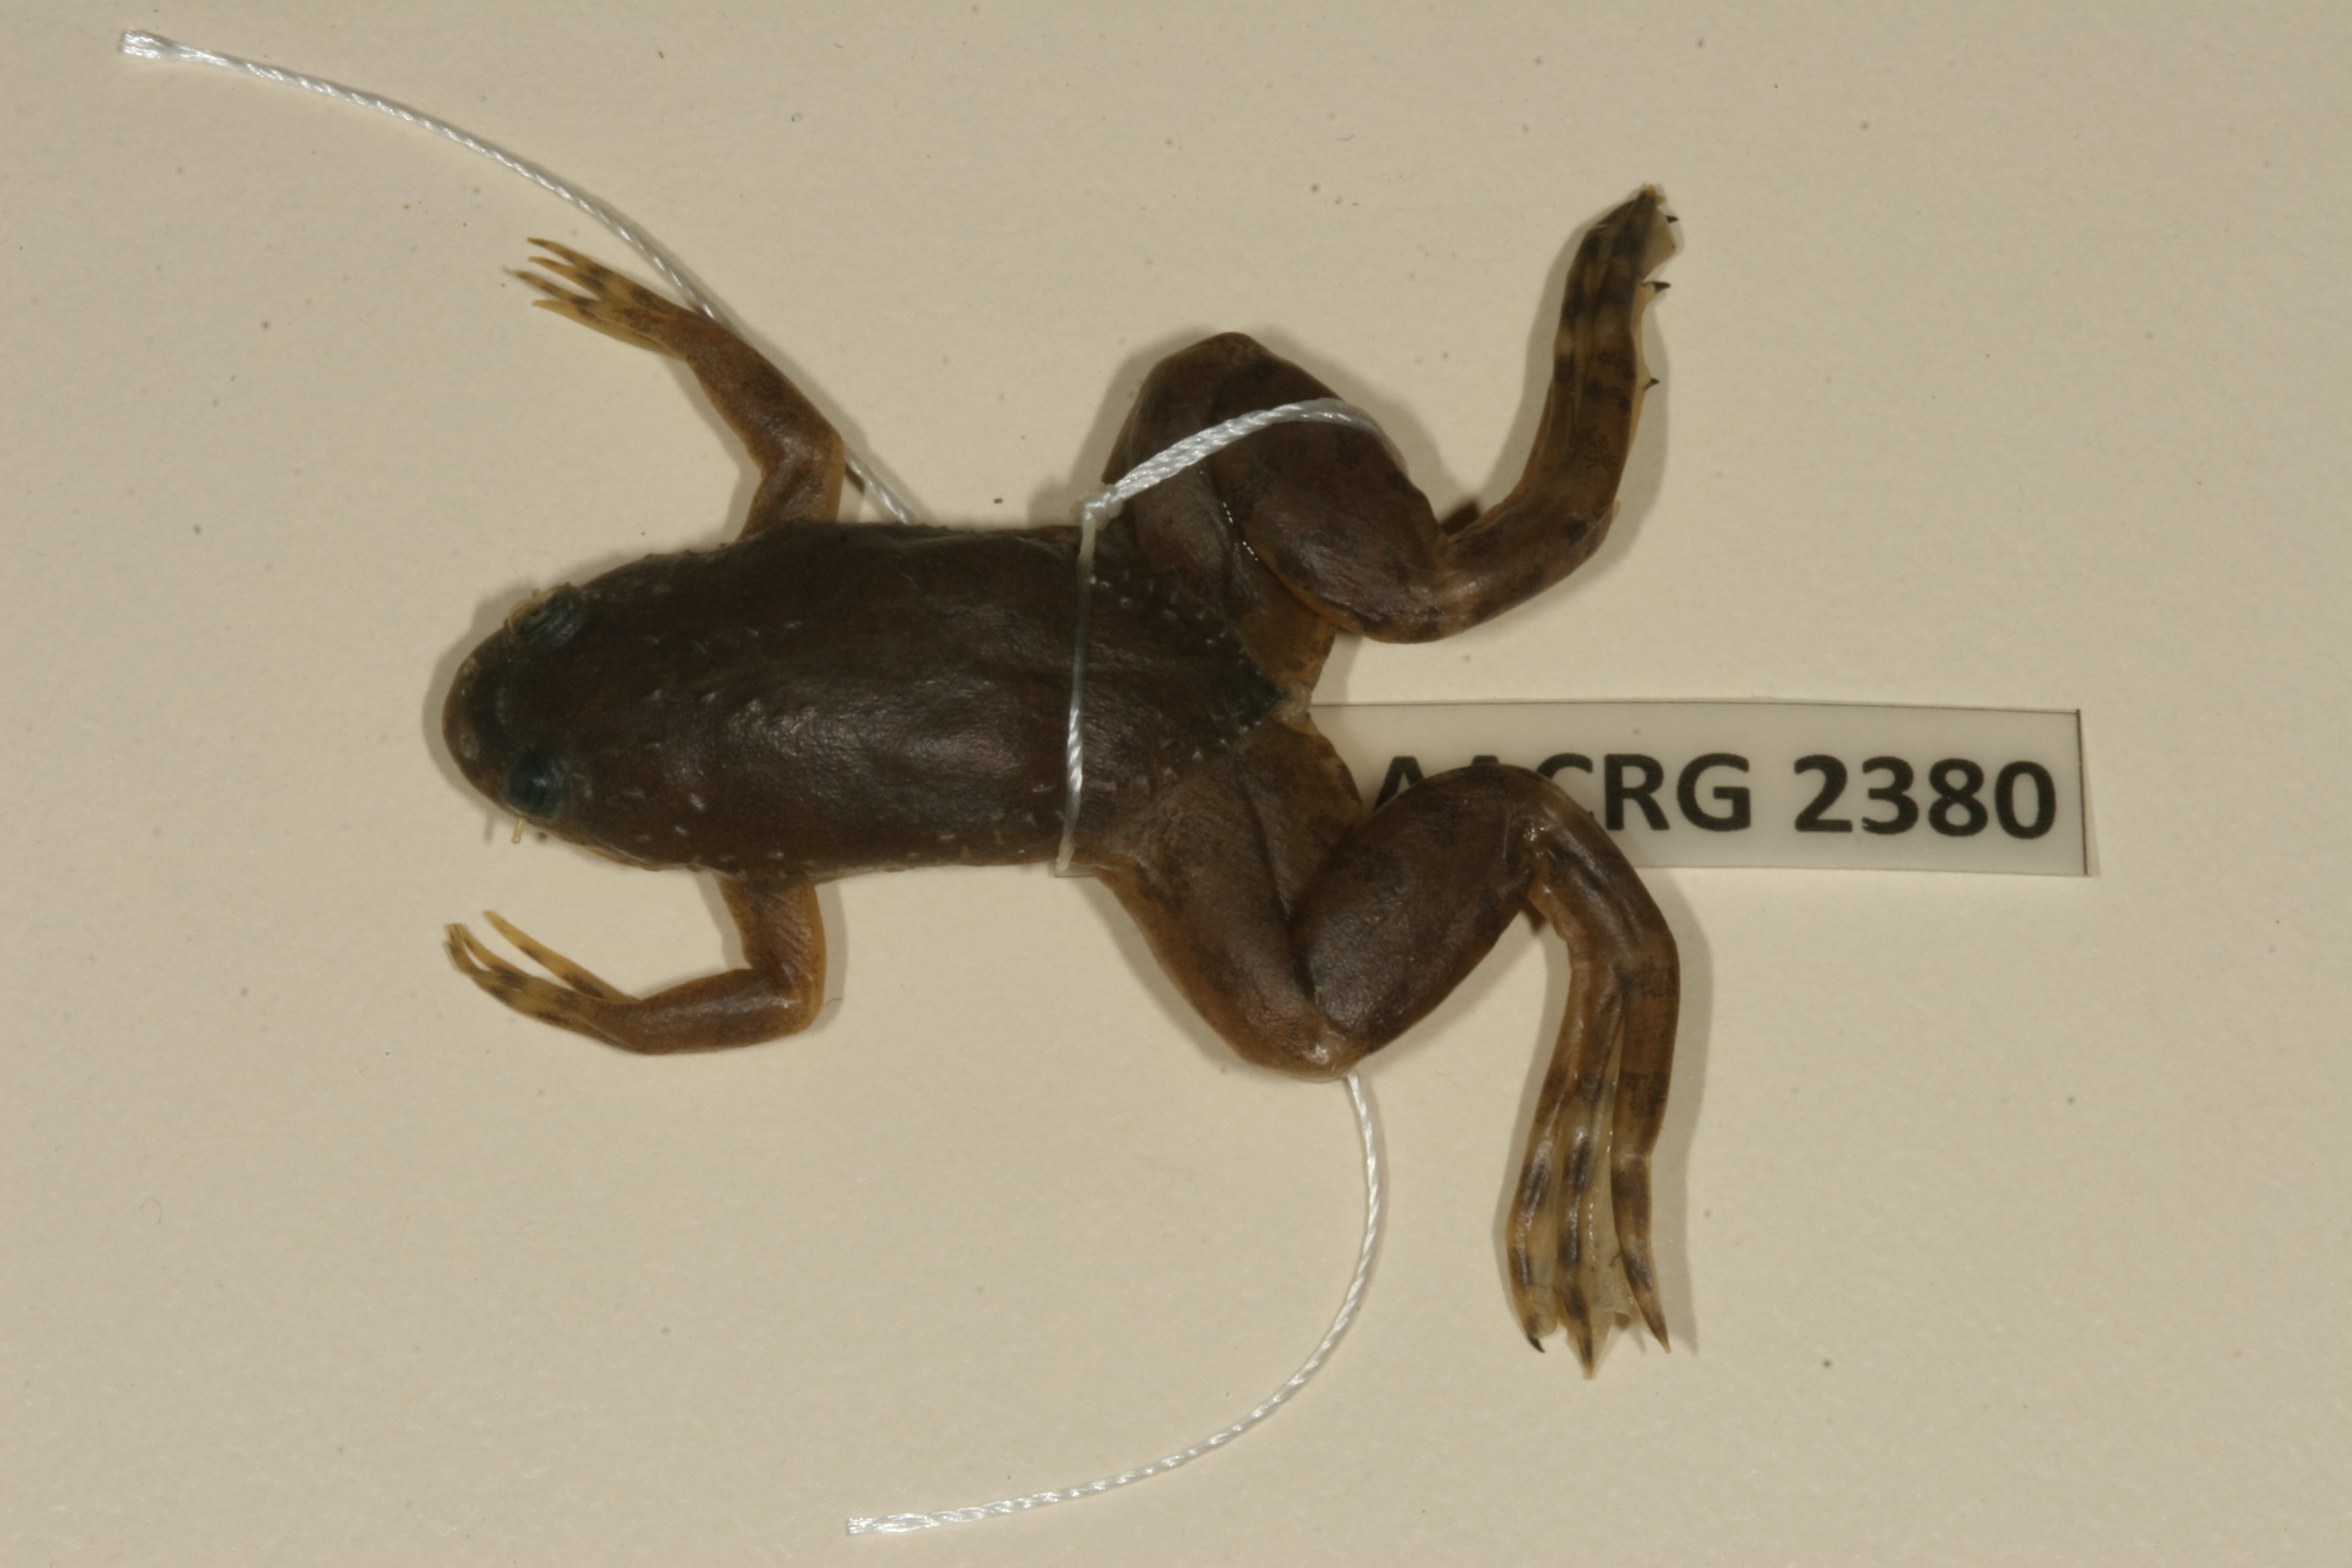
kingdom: Animalia
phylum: Chordata
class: Amphibia
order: Anura
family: Pipidae
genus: Xenopus
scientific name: Xenopus muelleri
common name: Muller's clawed frog
